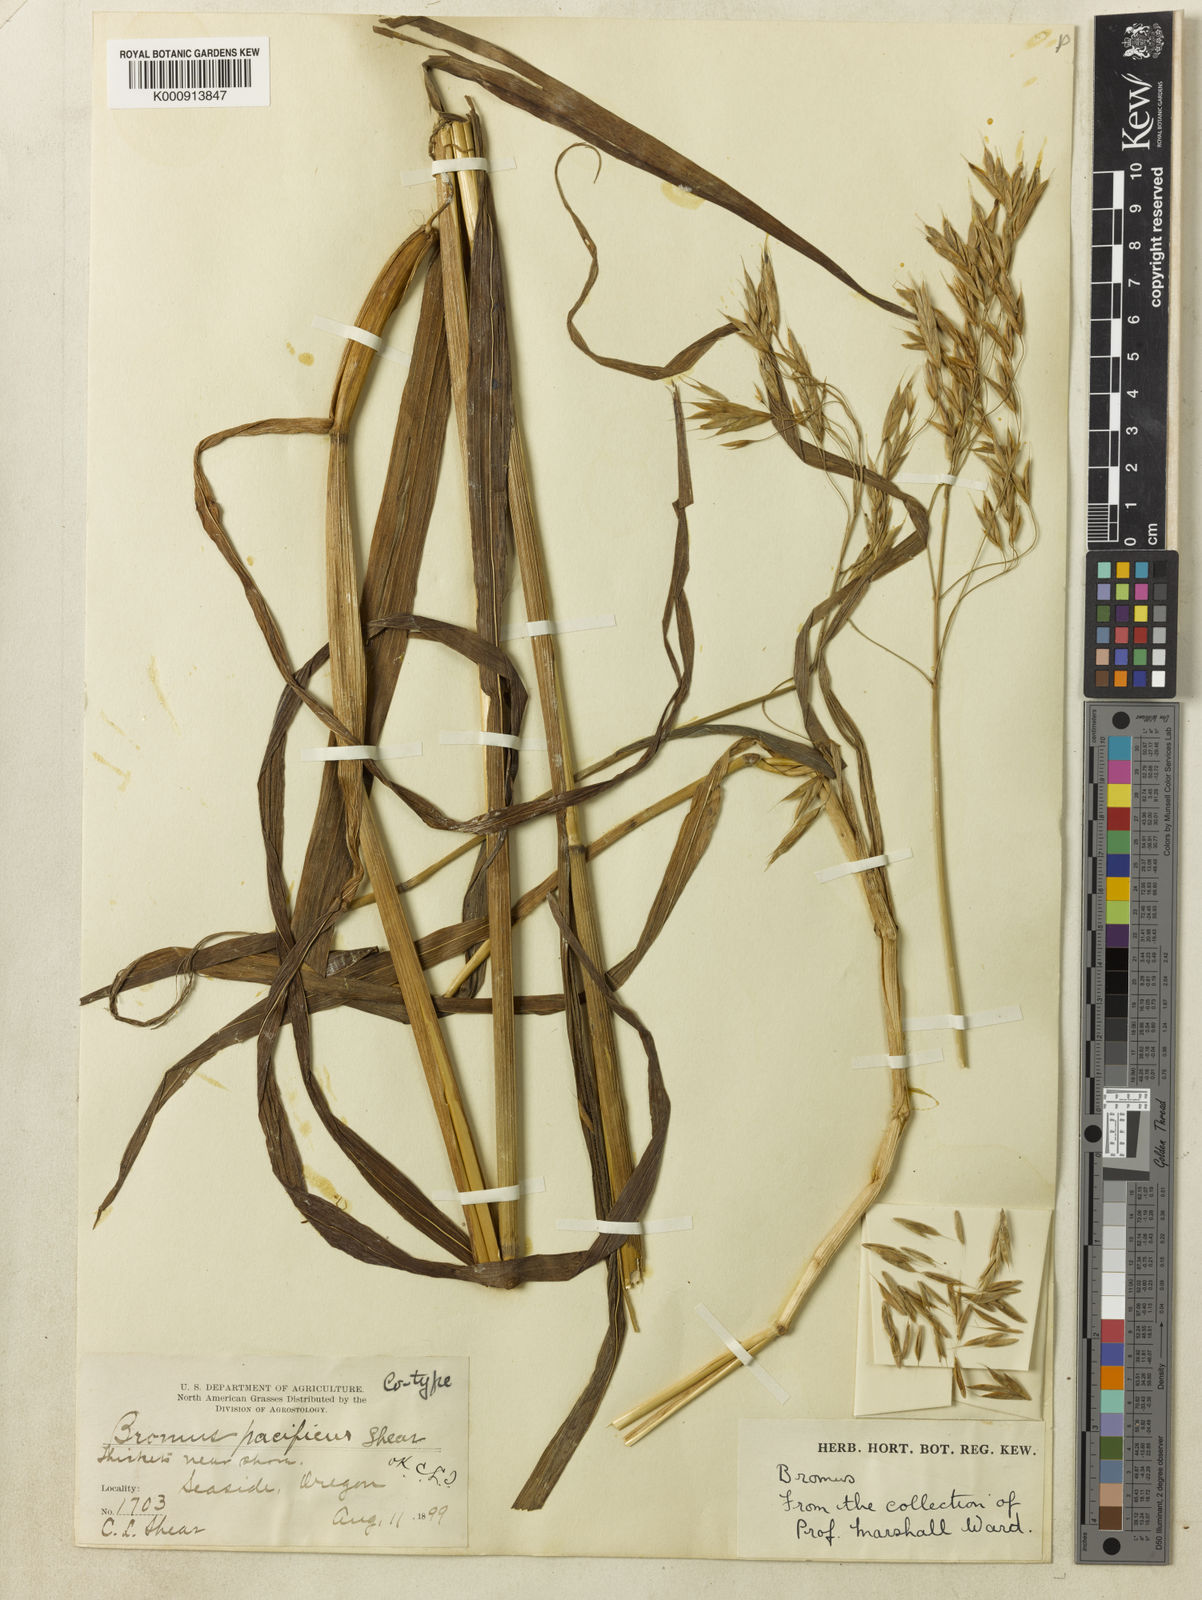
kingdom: Plantae
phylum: Tracheophyta
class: Liliopsida
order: Poales
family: Poaceae
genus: Bromus
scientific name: Bromus pacificus
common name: Pacific brome
